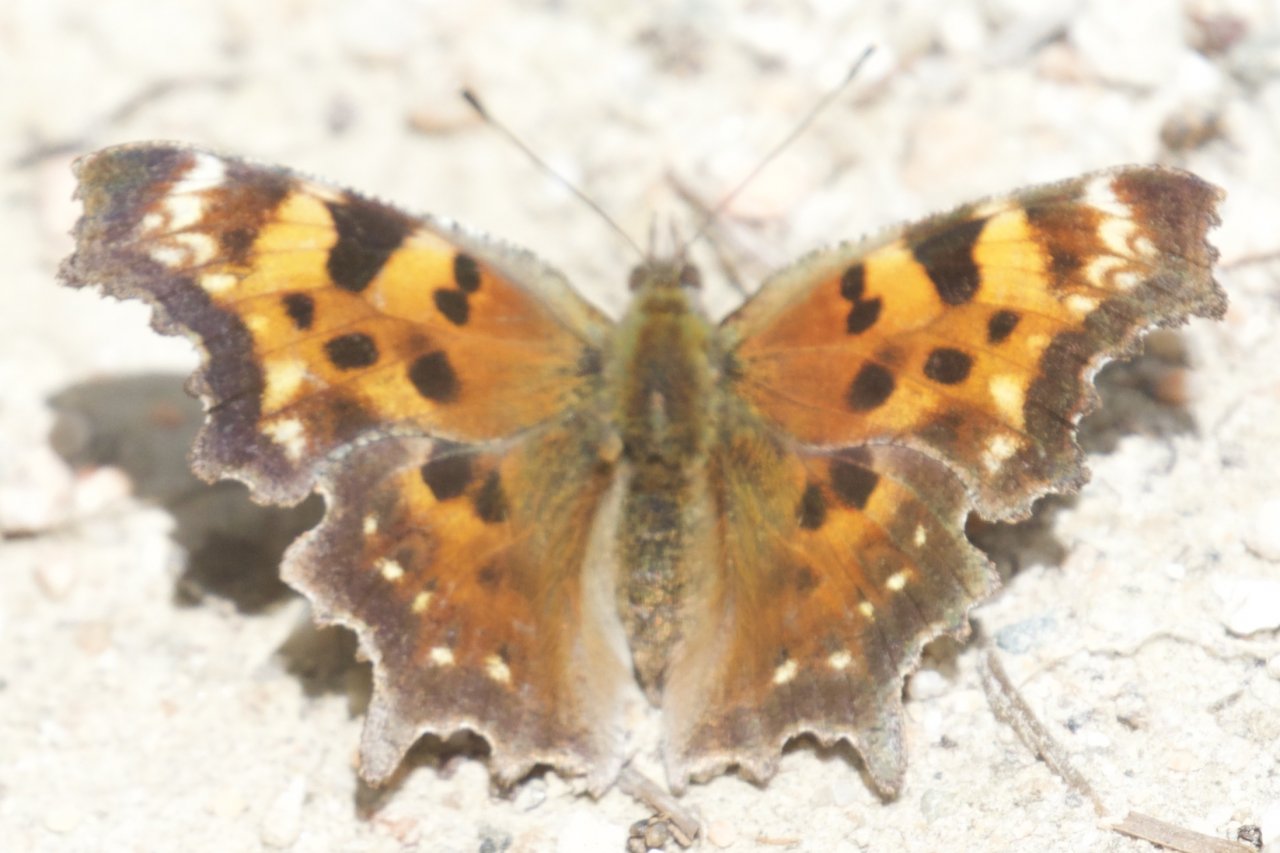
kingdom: Animalia
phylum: Arthropoda
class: Insecta
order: Lepidoptera
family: Nymphalidae
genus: Polygonia
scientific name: Polygonia faunus
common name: Green Comma
